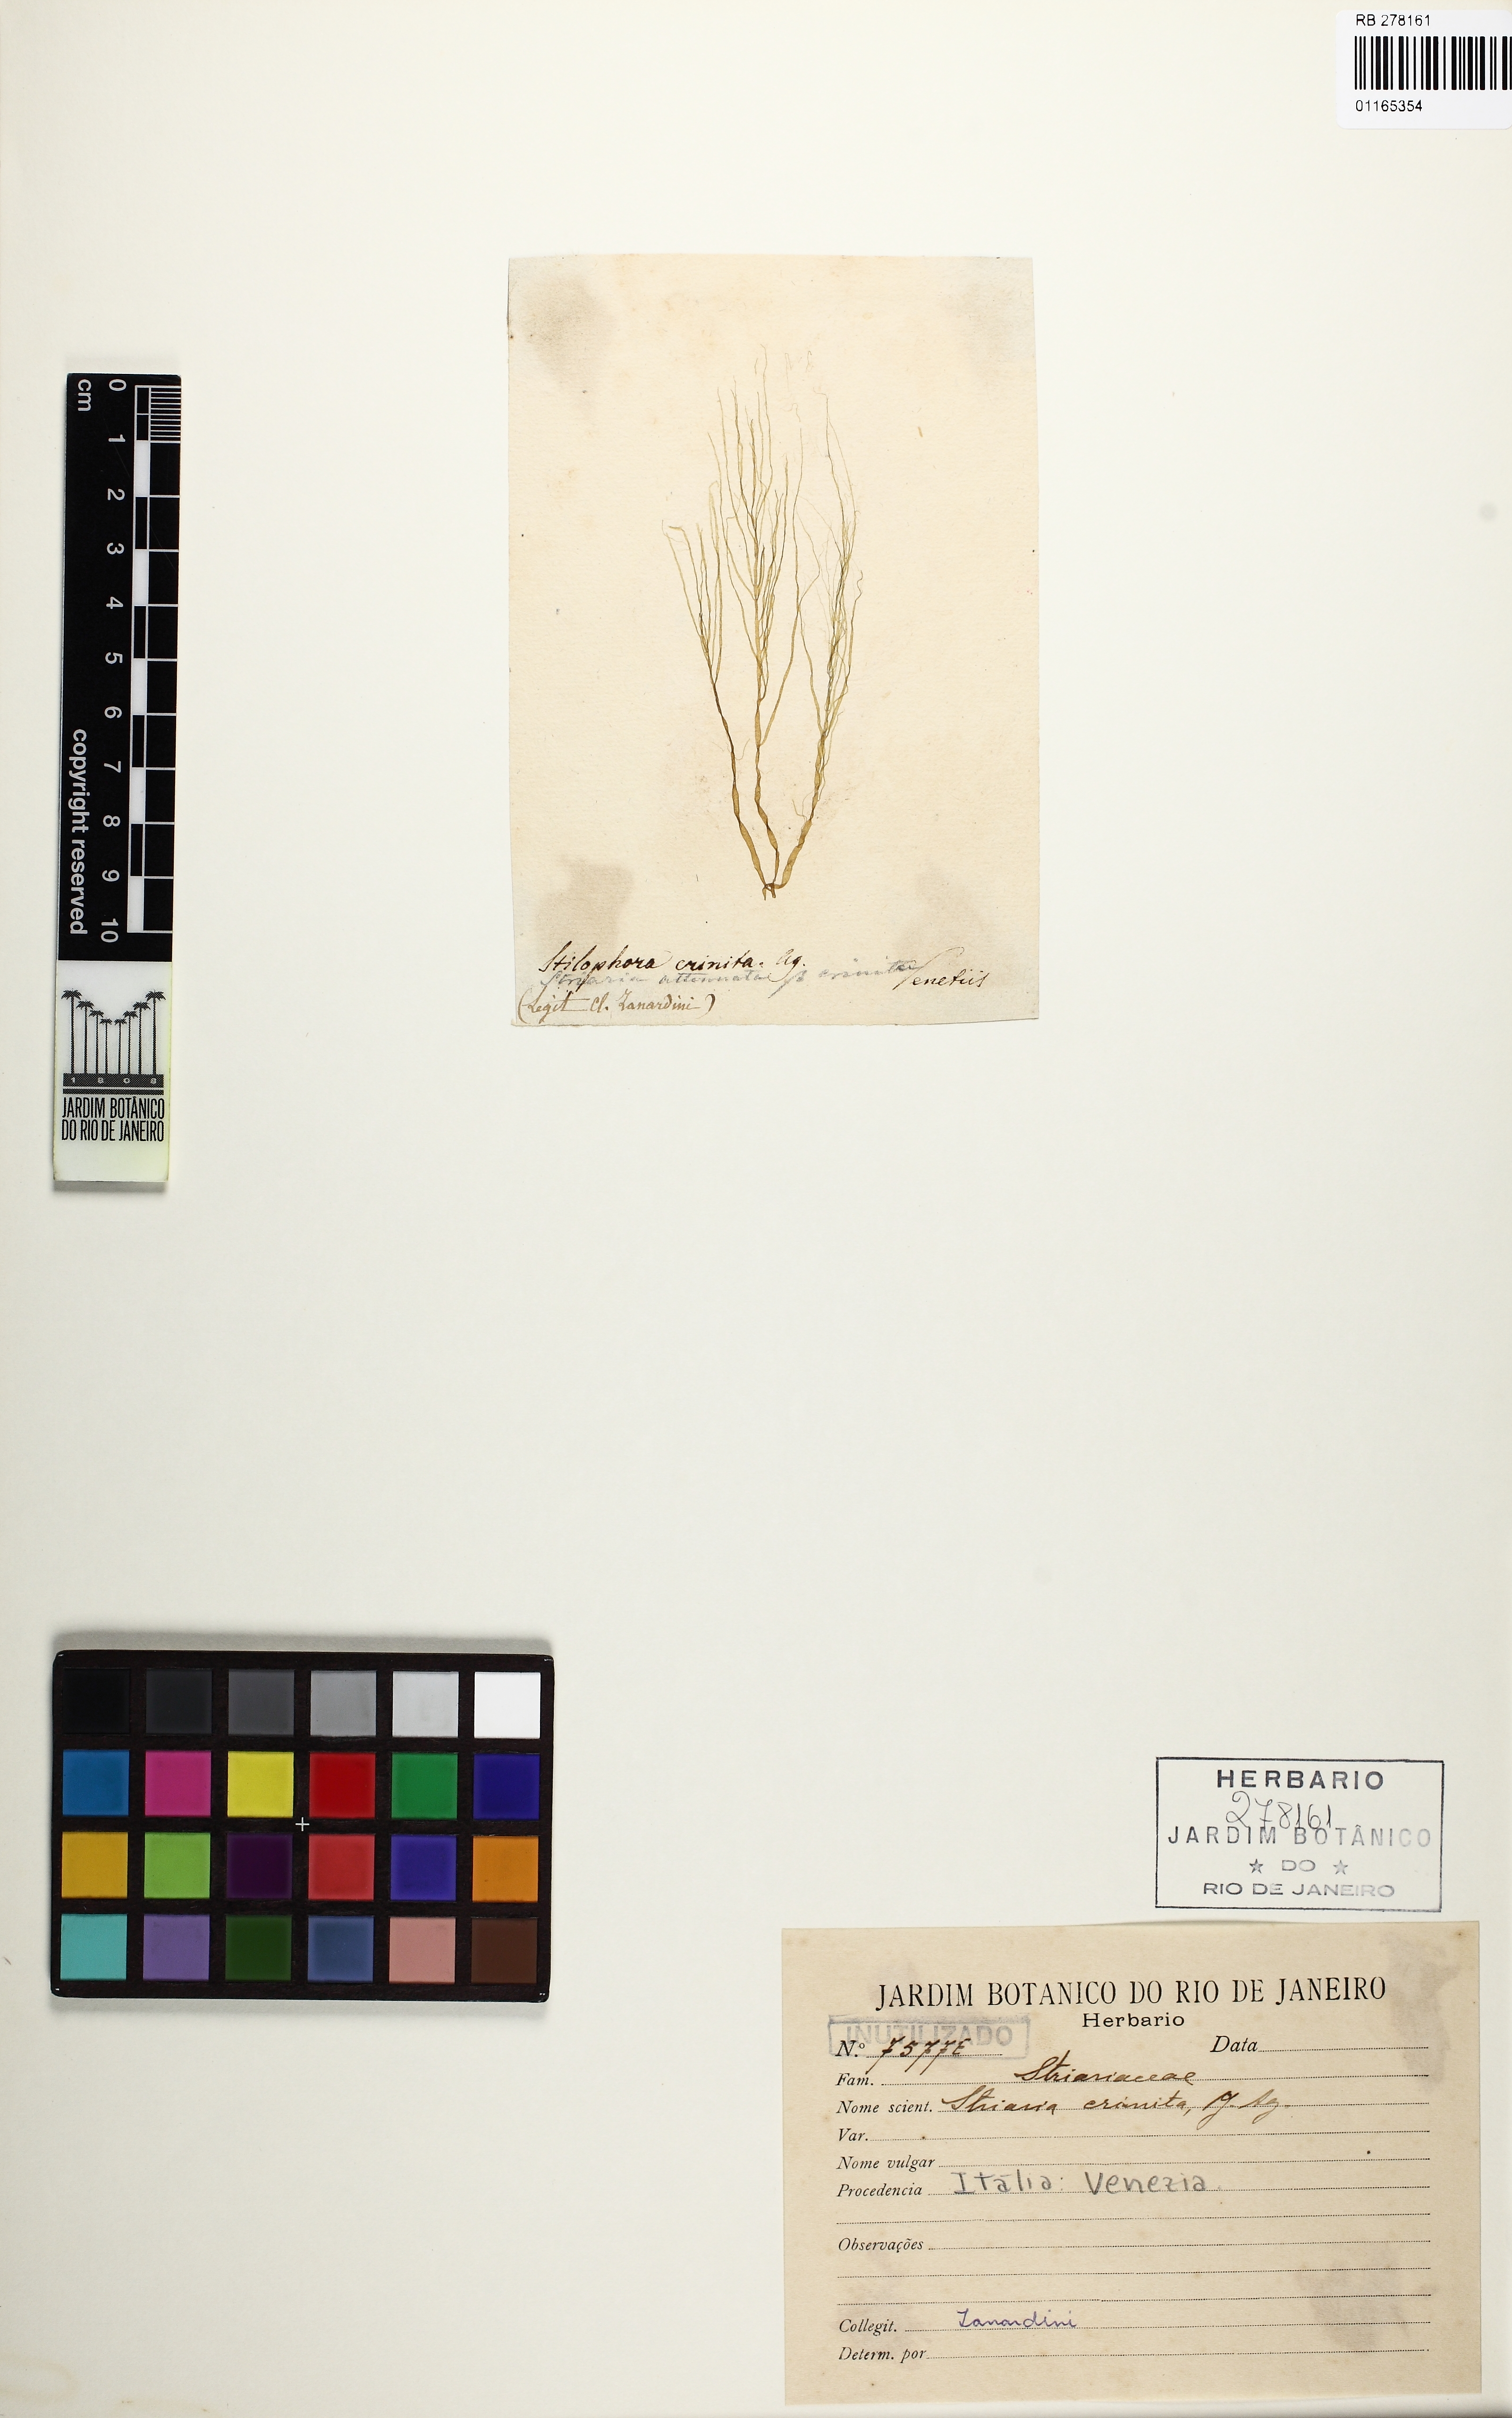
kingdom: Chromista
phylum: Ochrophyta
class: Phaeophyceae
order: Ectocarpales
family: Chordariaceae
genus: Stilophora
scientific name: Stilophora
